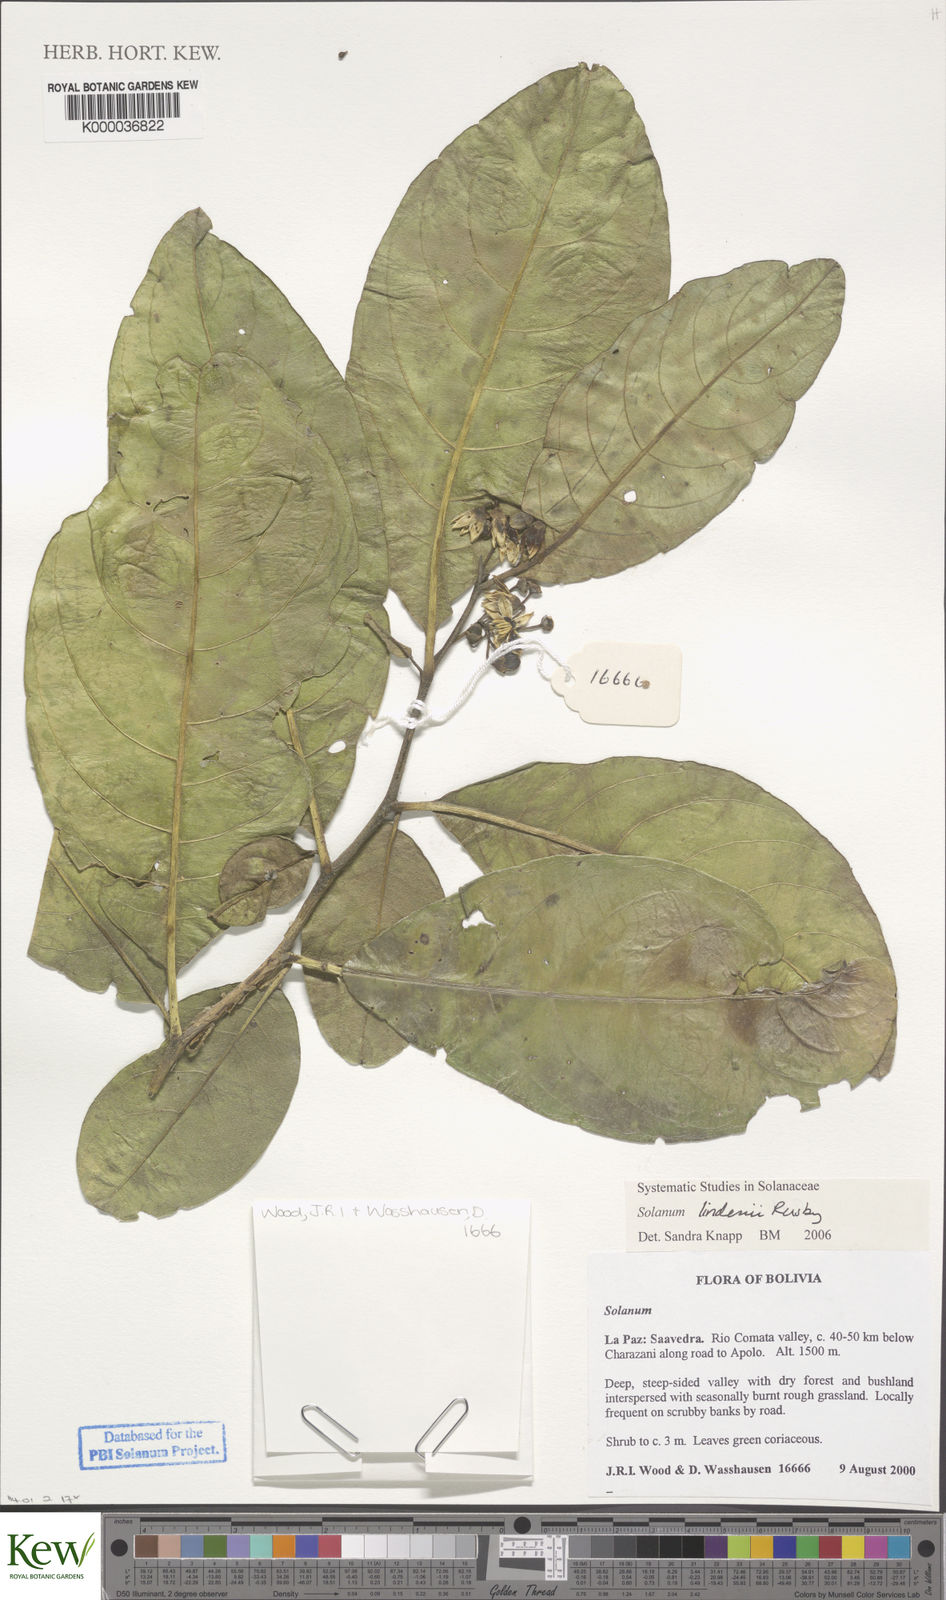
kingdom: Plantae
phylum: Tracheophyta
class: Magnoliopsida
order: Solanales
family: Solanaceae
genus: Solanum
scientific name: Solanum lindenii
